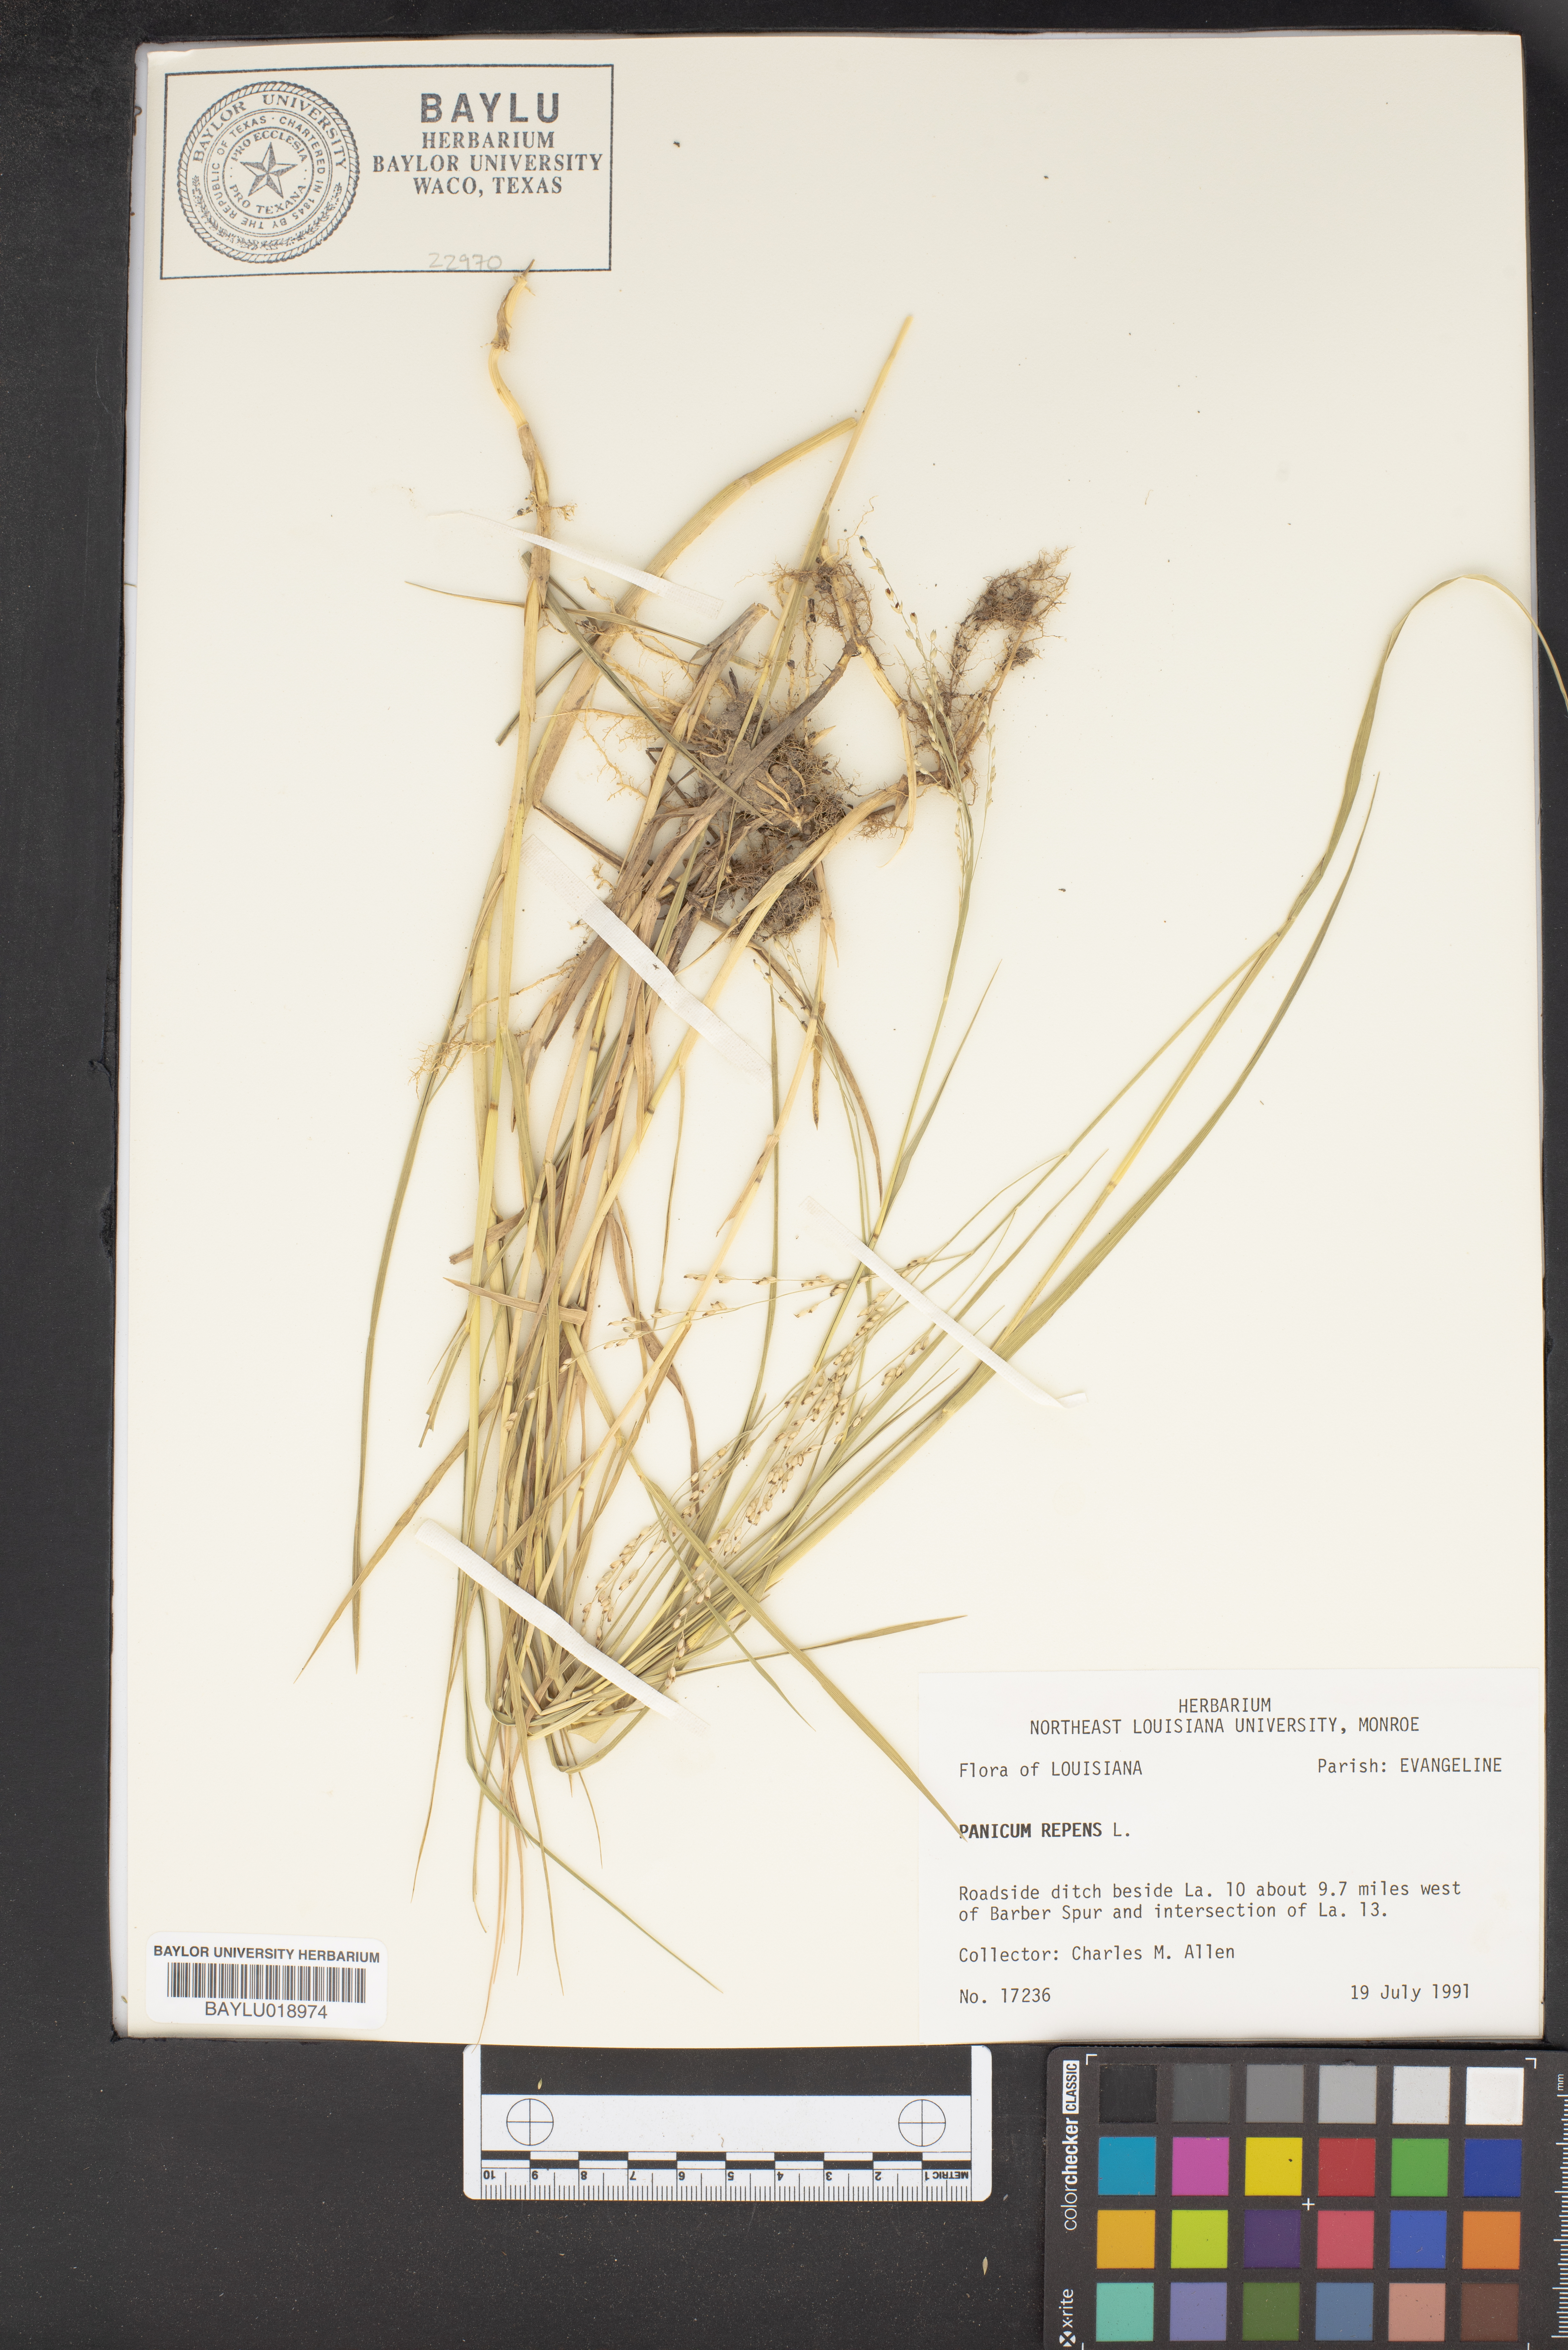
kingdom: Plantae
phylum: Tracheophyta
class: Liliopsida
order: Poales
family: Poaceae
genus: Panicum
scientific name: Panicum repens
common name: Torpedo grass
